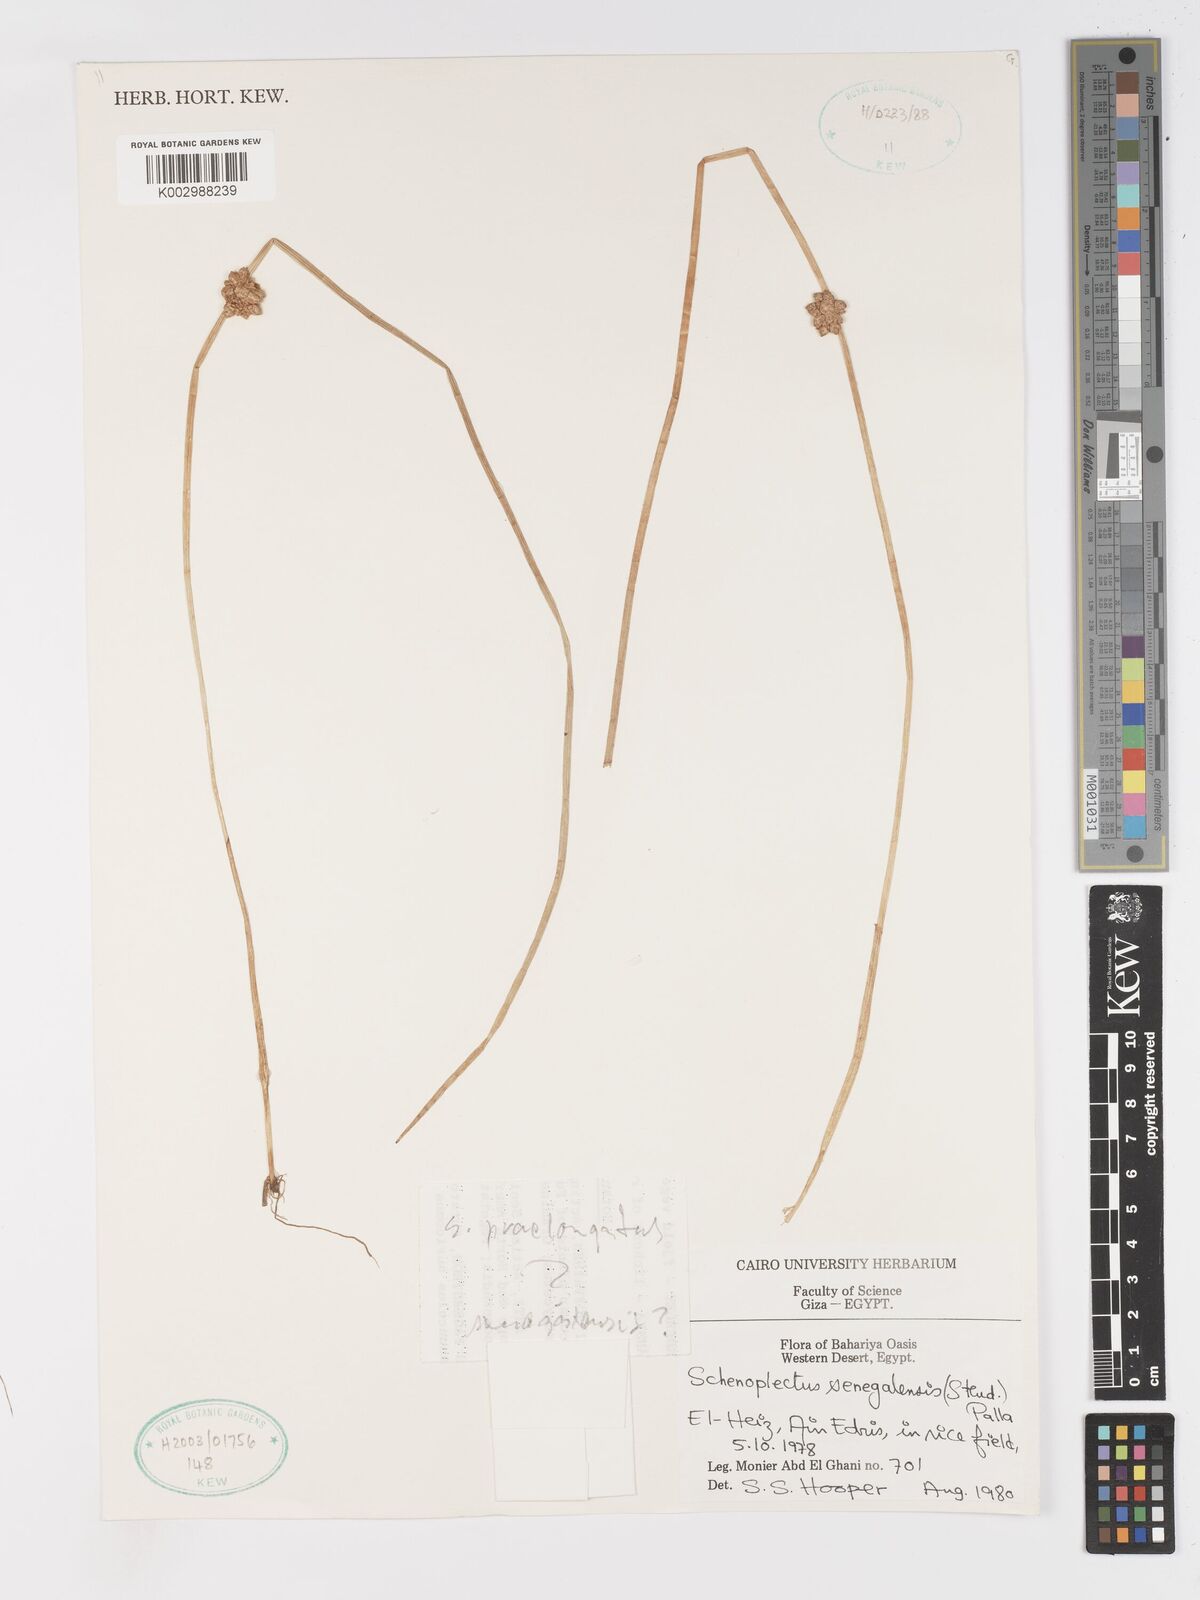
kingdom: Plantae
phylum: Tracheophyta
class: Liliopsida
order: Poales
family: Cyperaceae
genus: Schoenoplectiella
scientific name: Schoenoplectiella senegalensis
